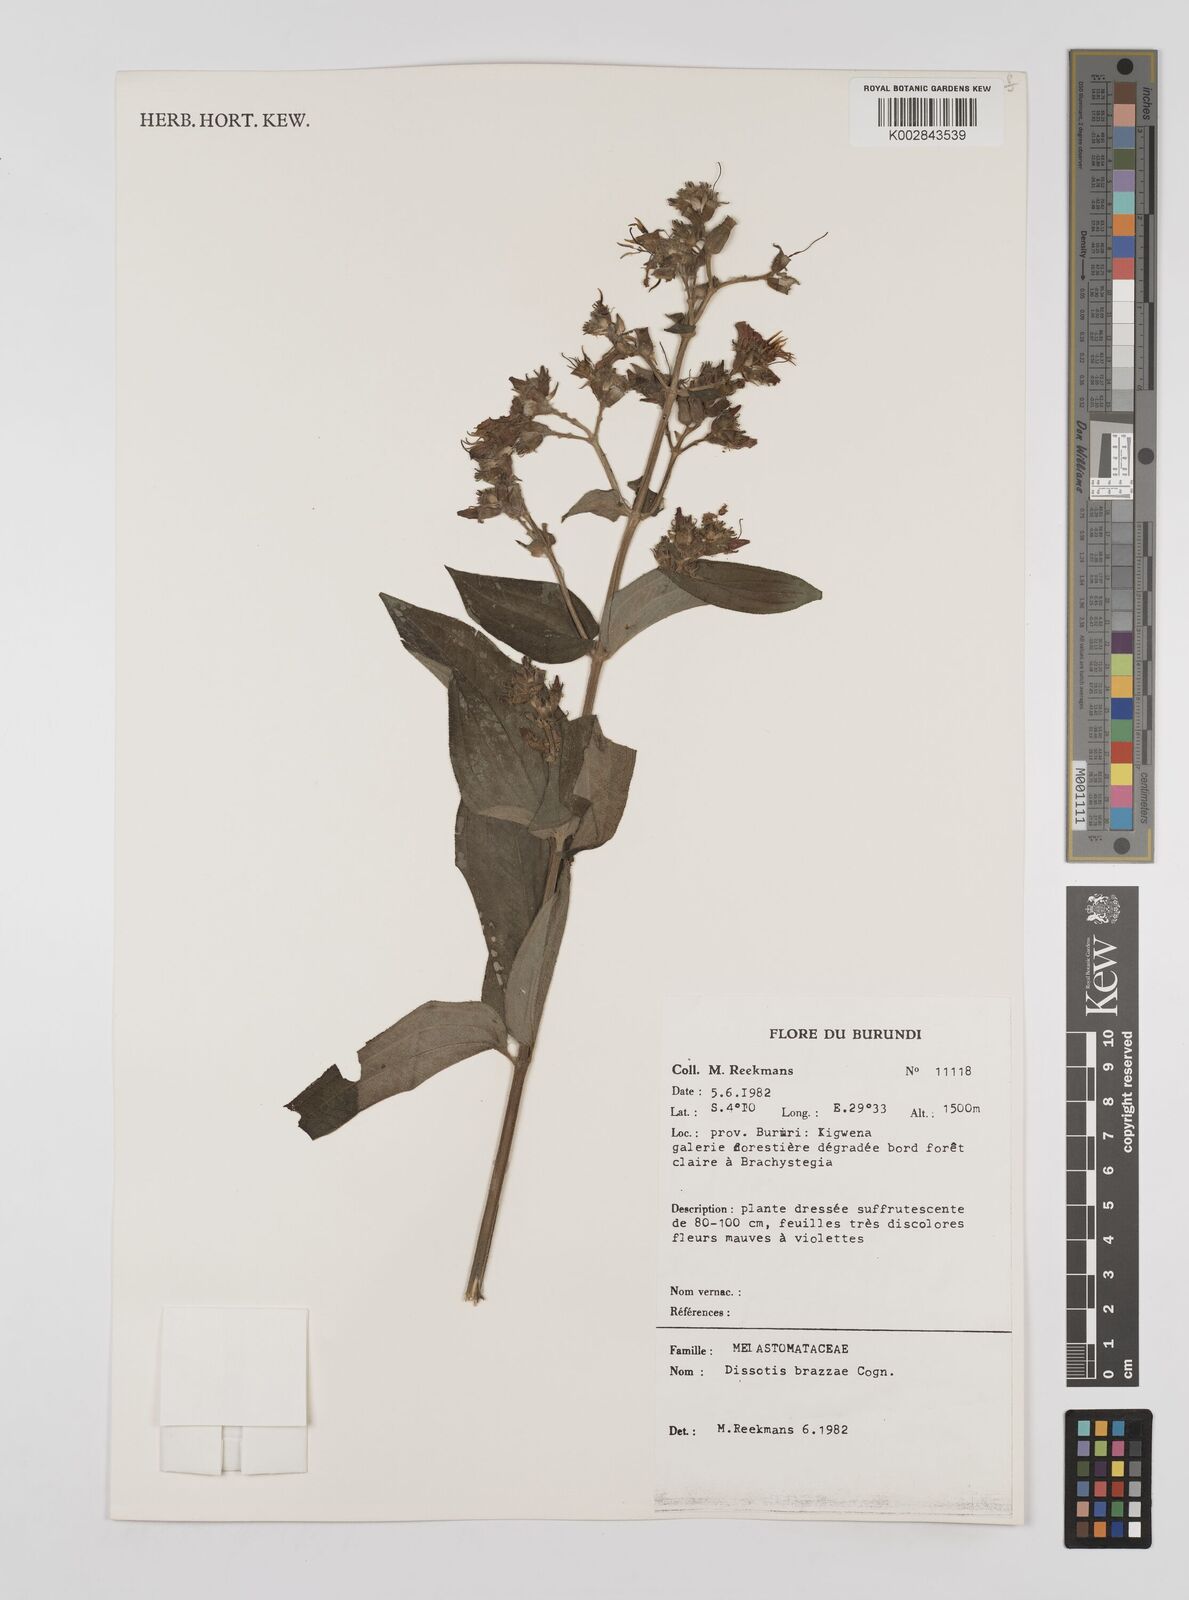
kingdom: Plantae
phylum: Tracheophyta
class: Magnoliopsida
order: Myrtales
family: Melastomataceae
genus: Dupineta
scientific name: Dupineta brazzae
